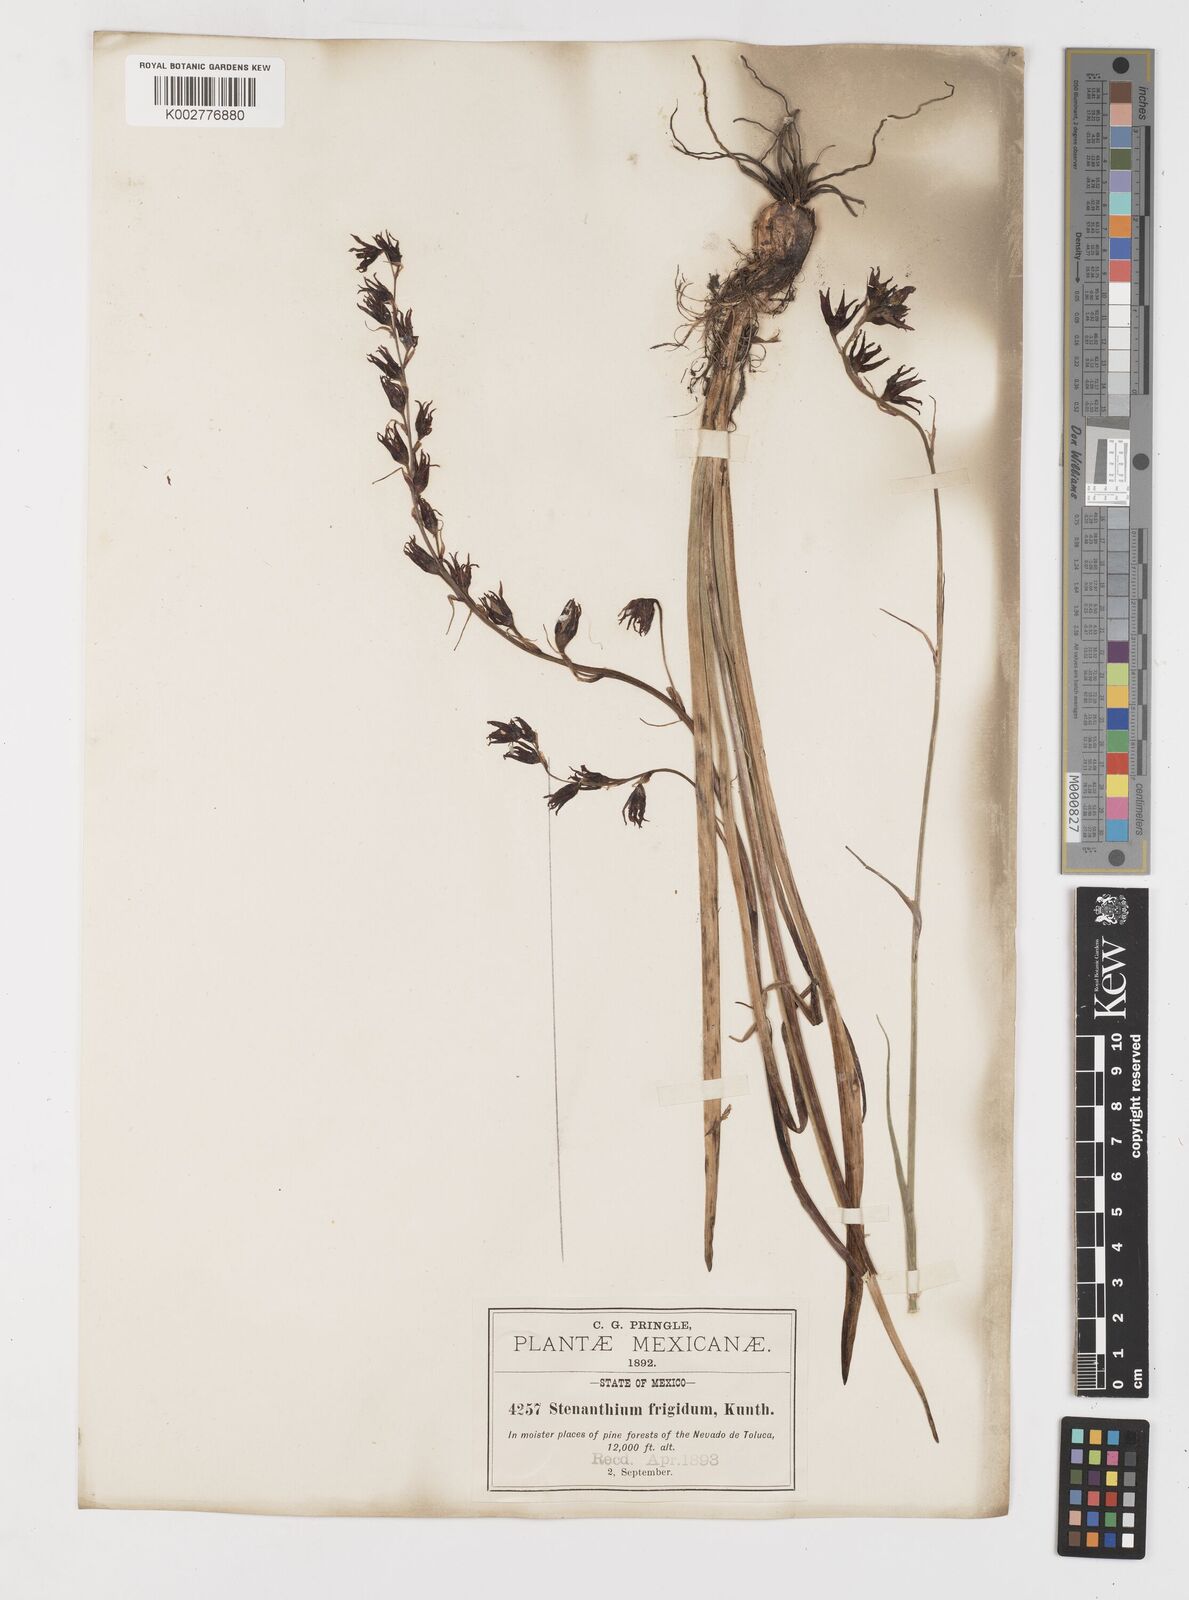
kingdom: Plantae
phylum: Tracheophyta
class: Liliopsida
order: Liliales
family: Melanthiaceae
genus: Anticlea
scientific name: Anticlea frigida
